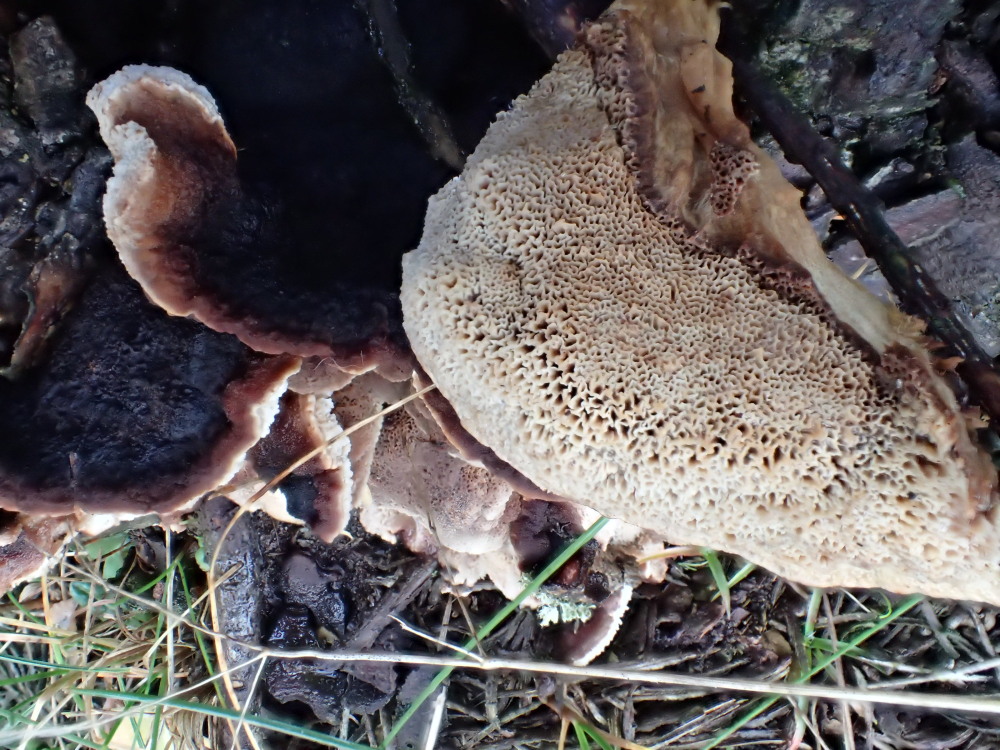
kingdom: Fungi
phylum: Basidiomycota
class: Agaricomycetes
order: Polyporales
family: Ischnodermataceae
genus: Ischnoderma
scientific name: Ischnoderma benzoinum
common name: gran-tjæreporesvamp
